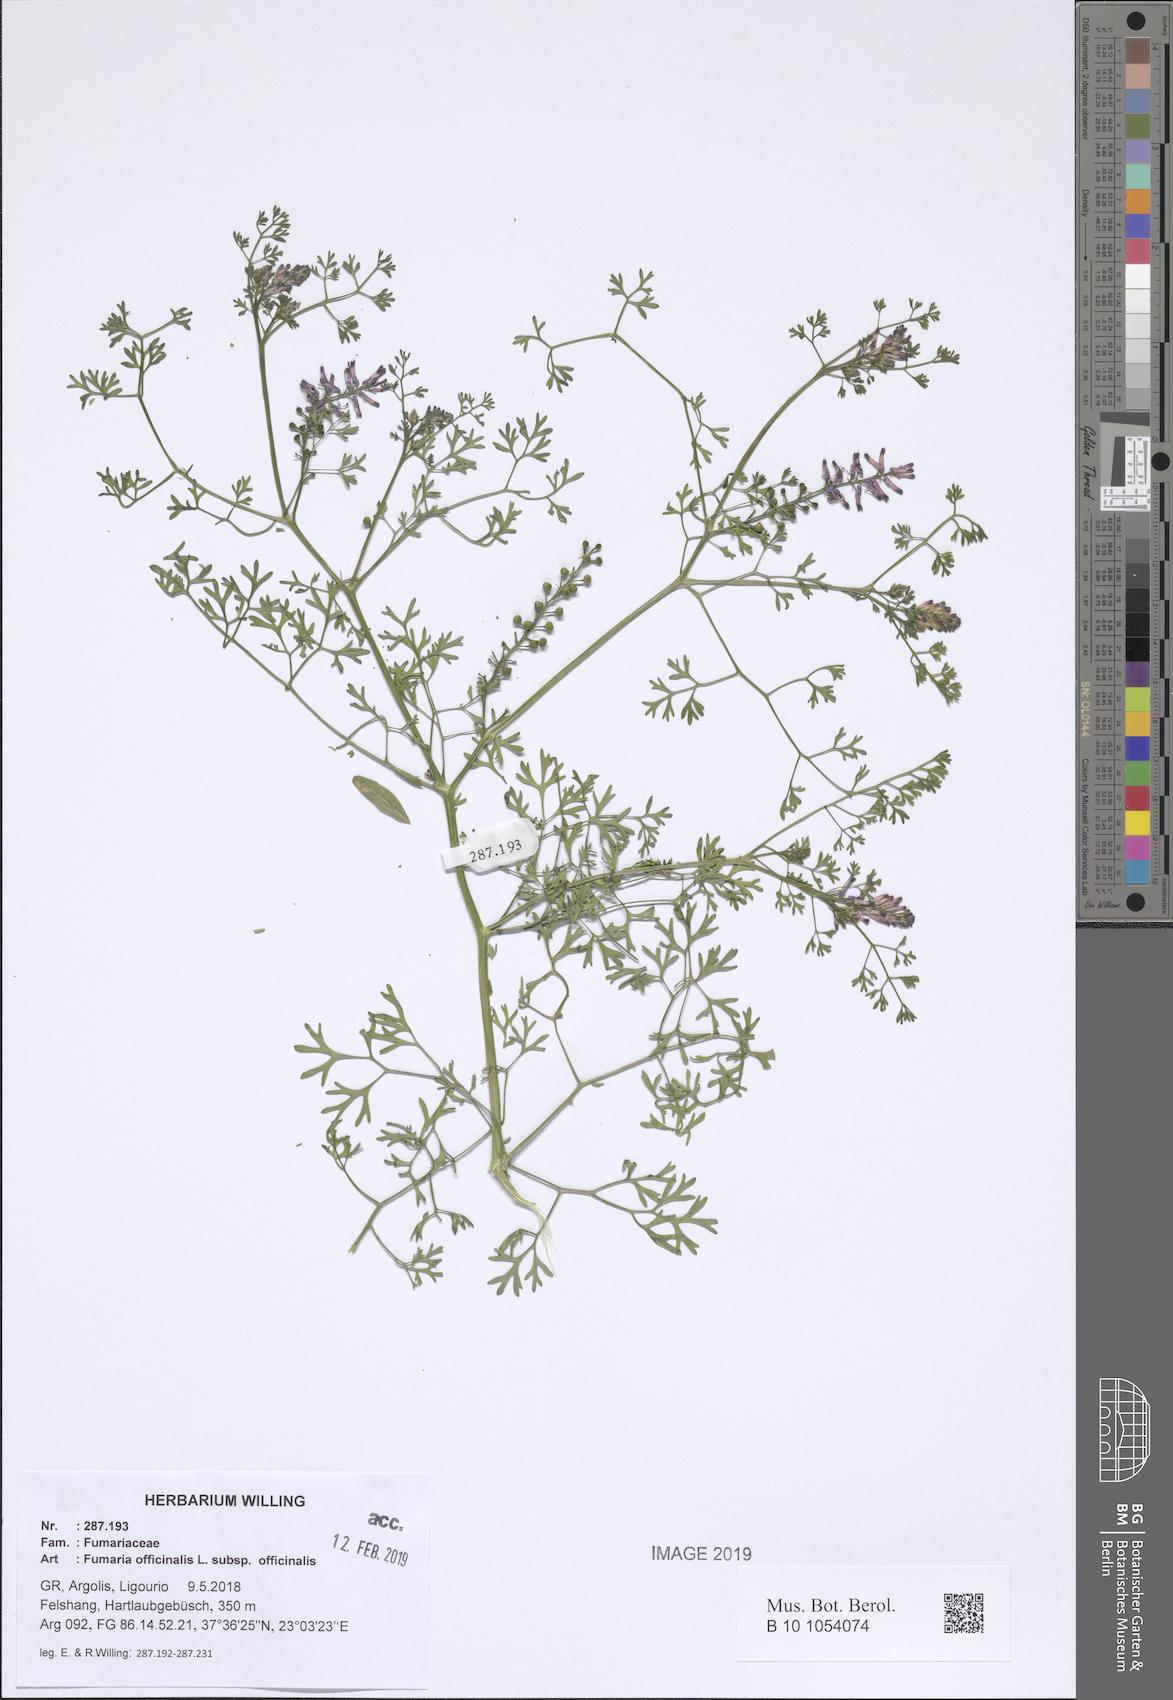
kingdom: Plantae
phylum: Tracheophyta
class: Magnoliopsida
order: Ranunculales
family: Papaveraceae
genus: Fumaria
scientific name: Fumaria officinalis
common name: Common fumitory
